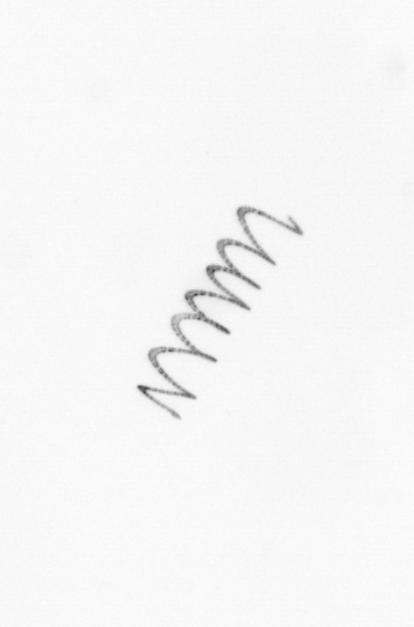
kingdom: Chromista
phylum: Ochrophyta
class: Bacillariophyceae
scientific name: Bacillariophyceae
